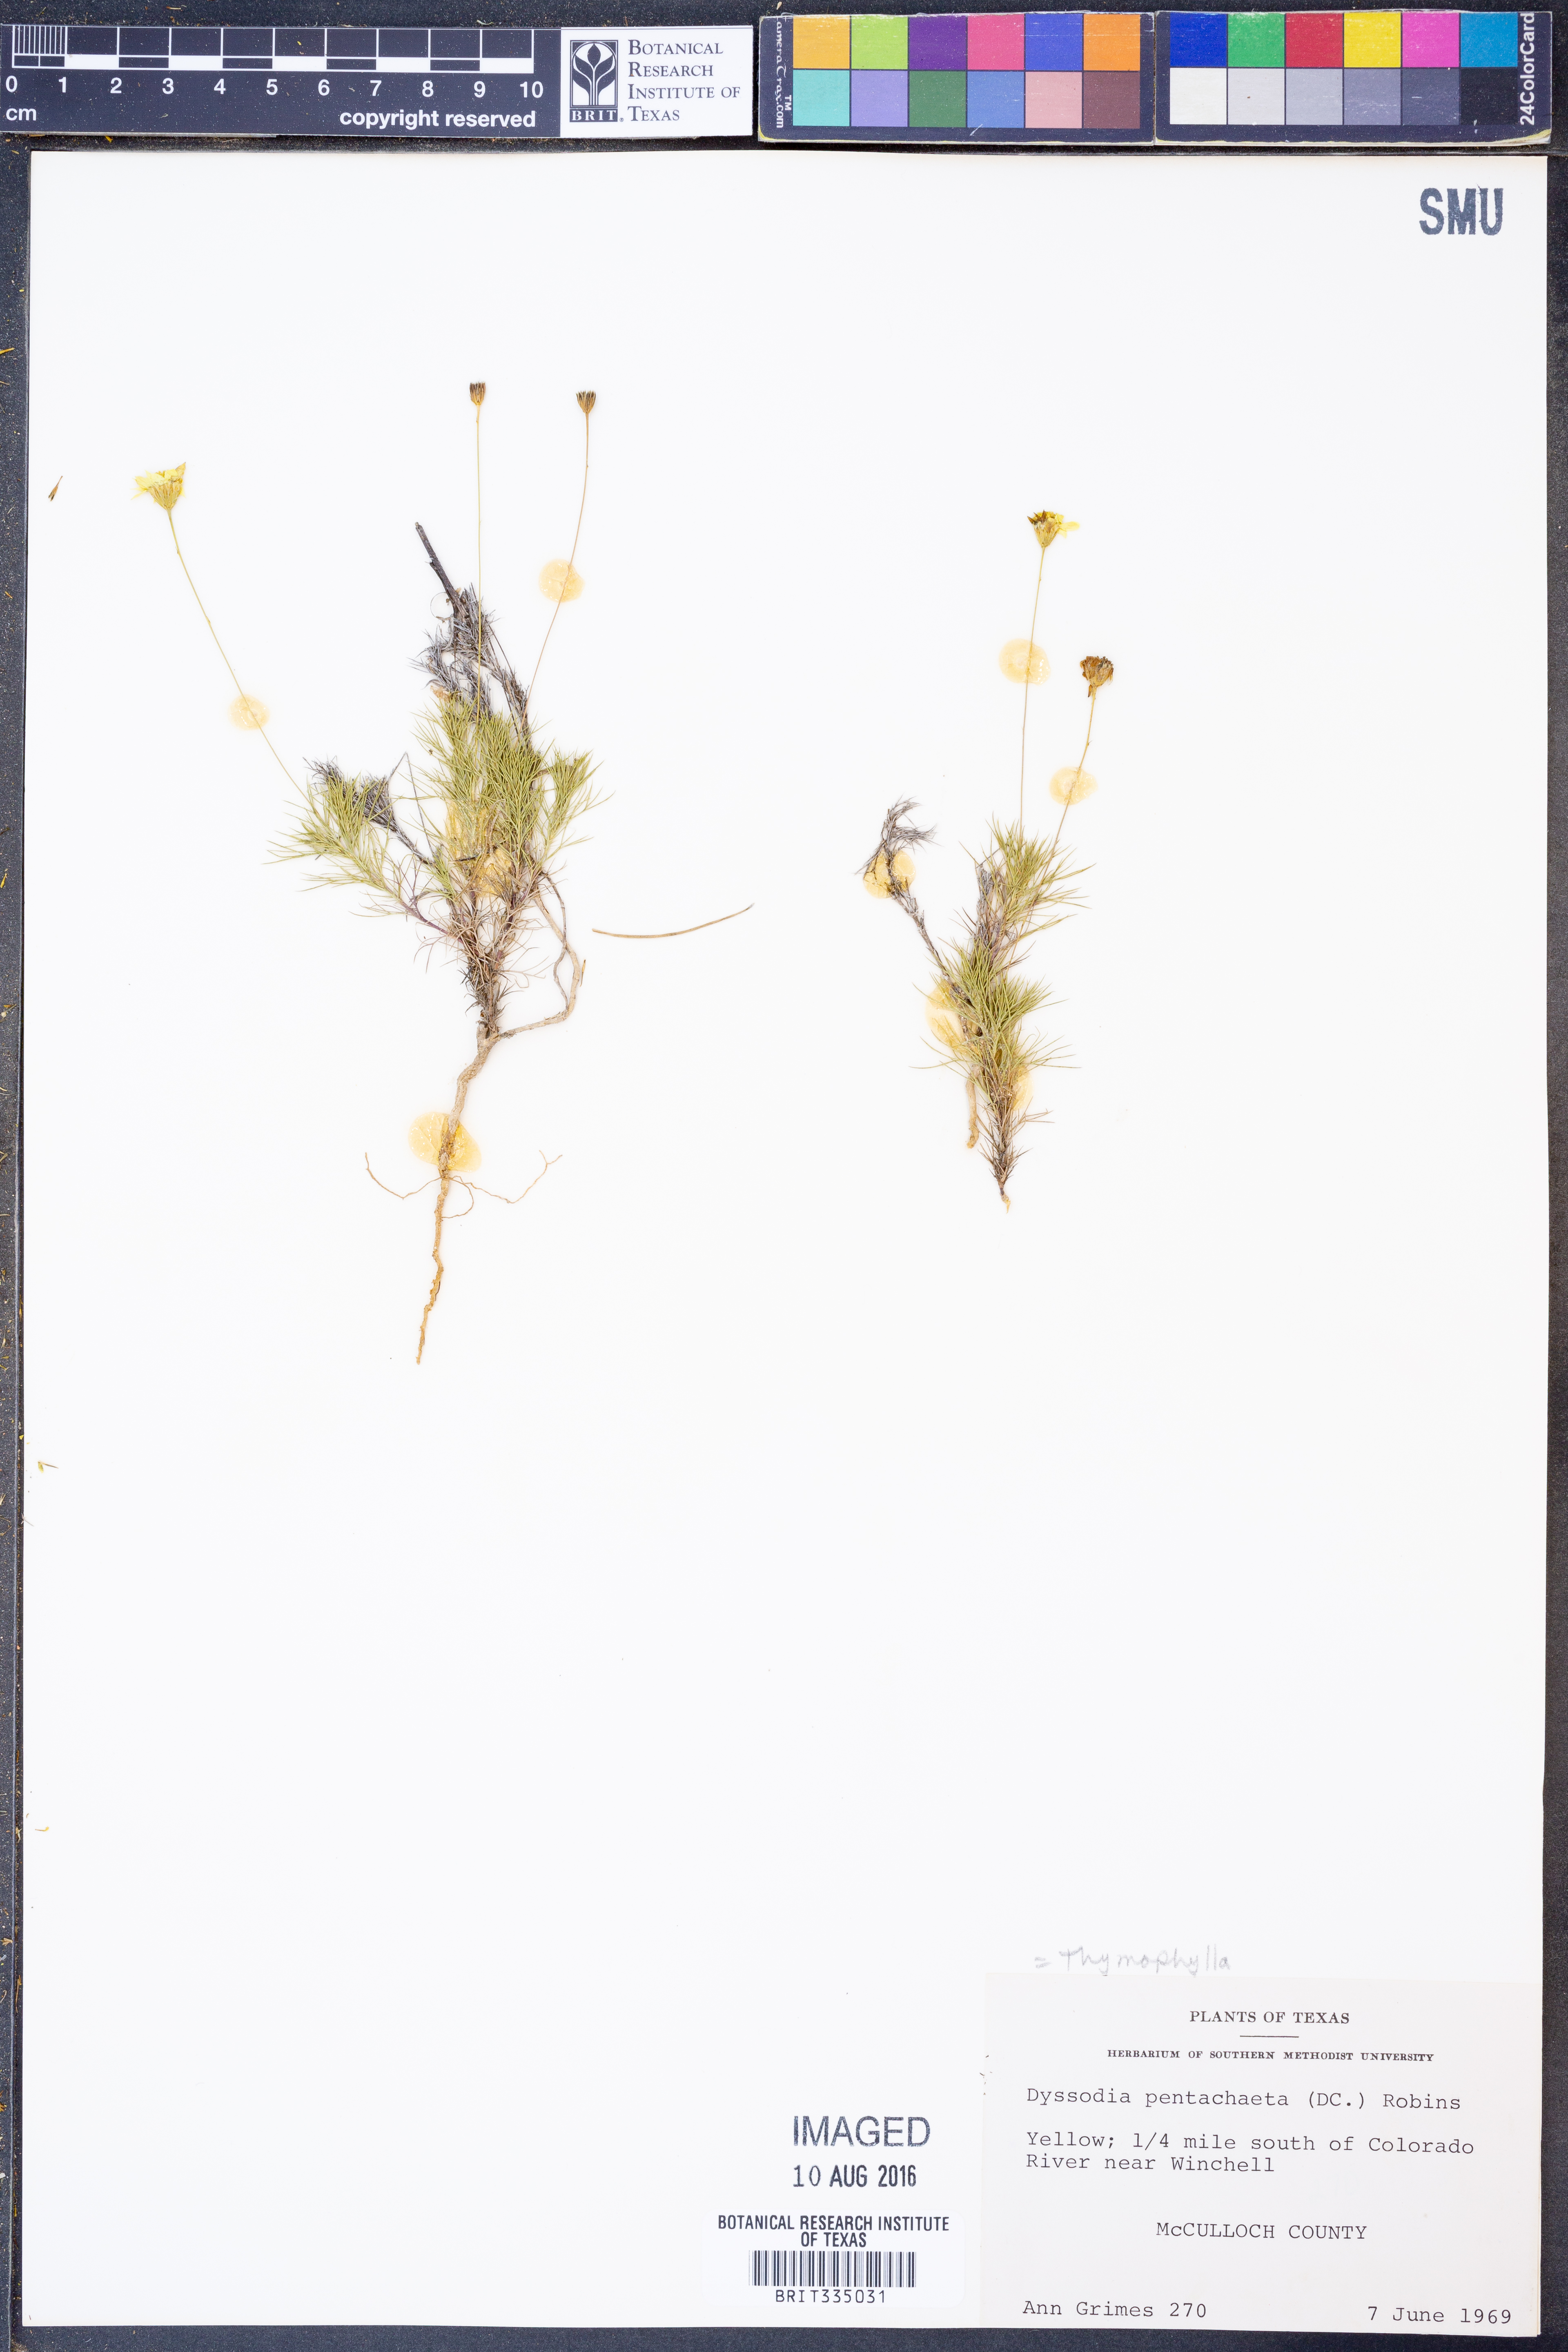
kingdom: Plantae
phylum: Tracheophyta
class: Magnoliopsida
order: Asterales
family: Asteraceae
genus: Thymophylla
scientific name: Thymophylla pentachaeta
